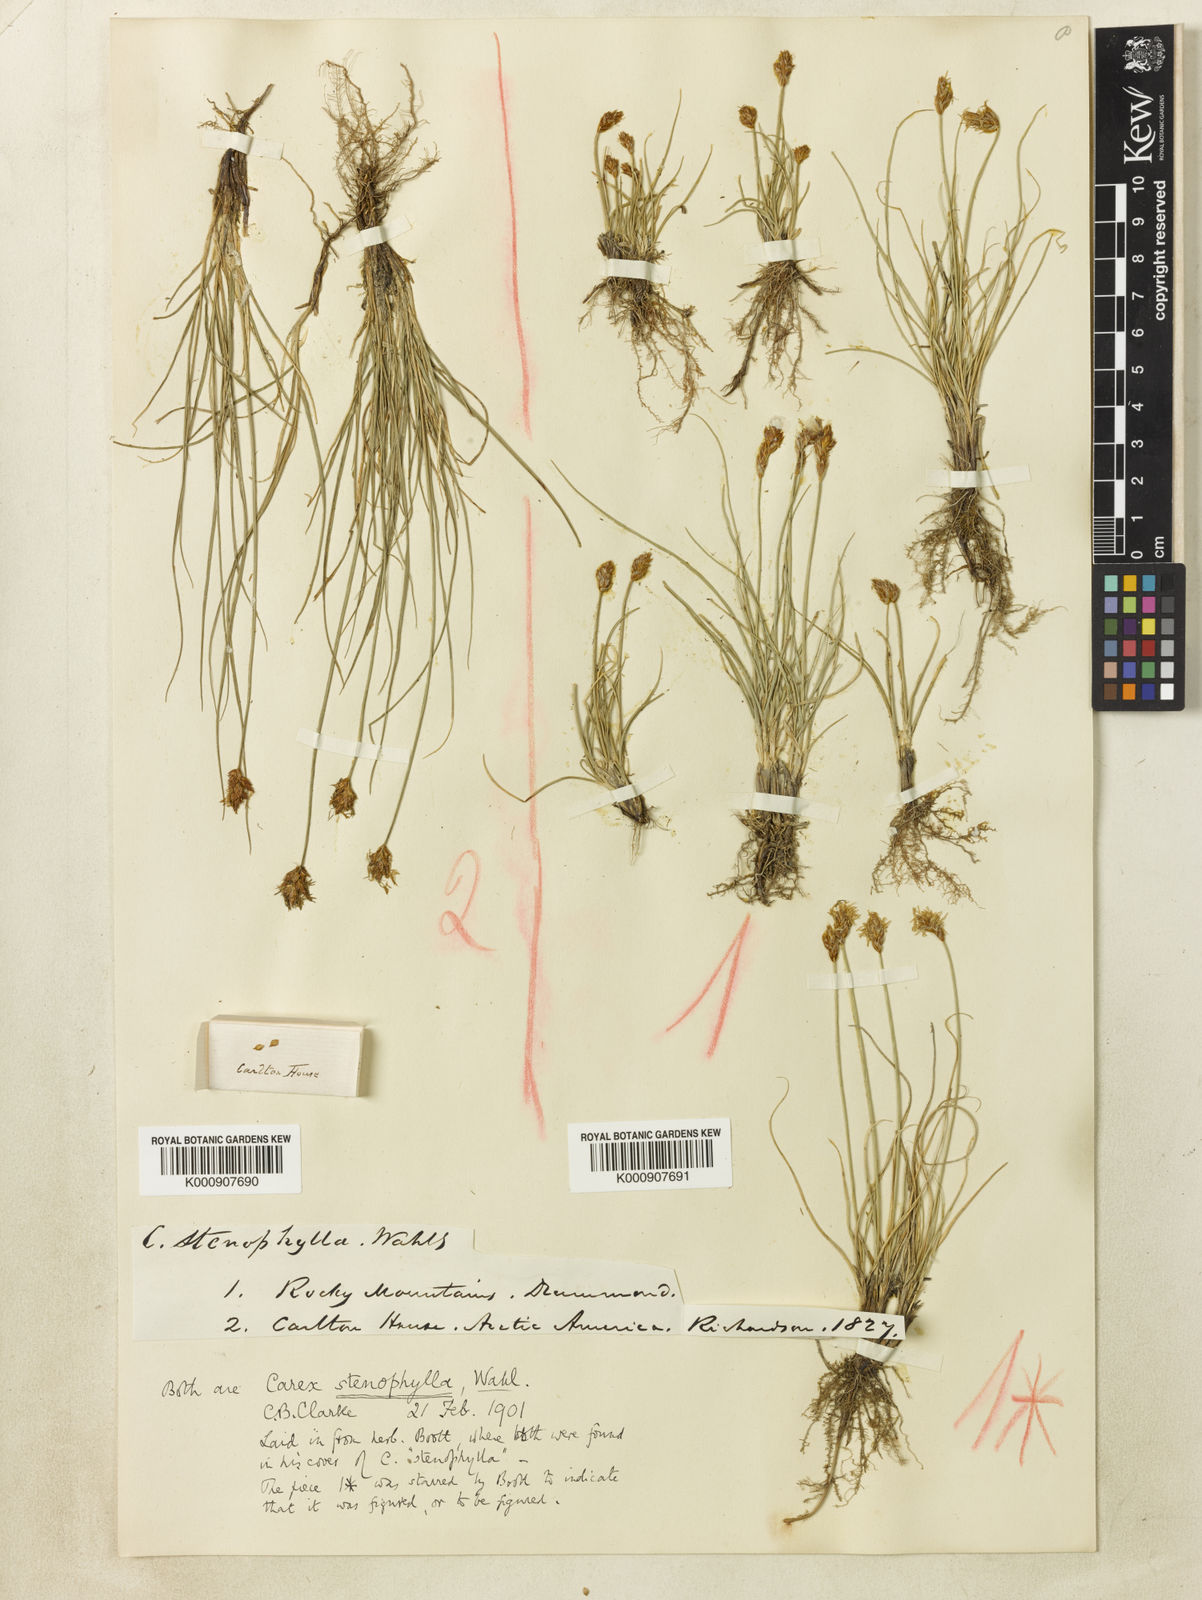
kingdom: Plantae
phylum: Tracheophyta
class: Liliopsida
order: Poales
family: Cyperaceae
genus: Carex
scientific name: Carex duriuscula
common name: Involute-leaved sedge
